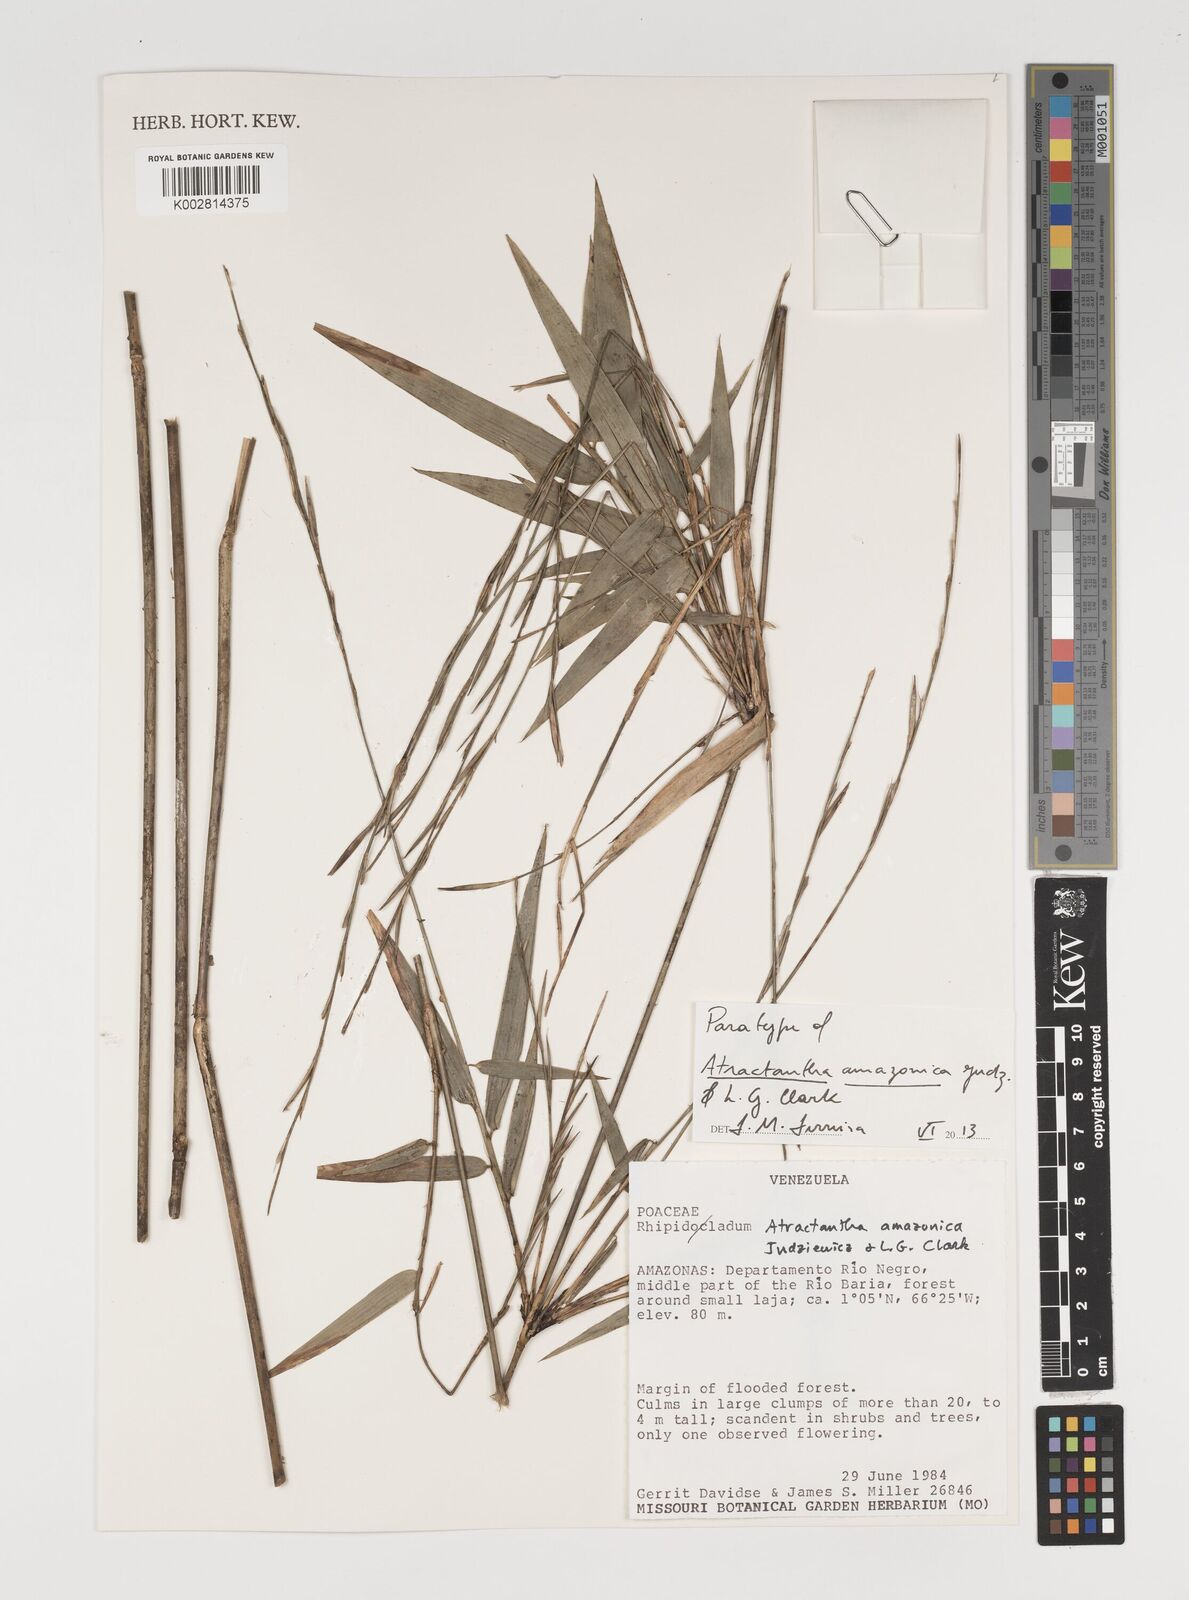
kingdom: Plantae
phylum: Tracheophyta
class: Liliopsida
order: Poales
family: Poaceae
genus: Atractantha
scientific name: Atractantha amazonica
